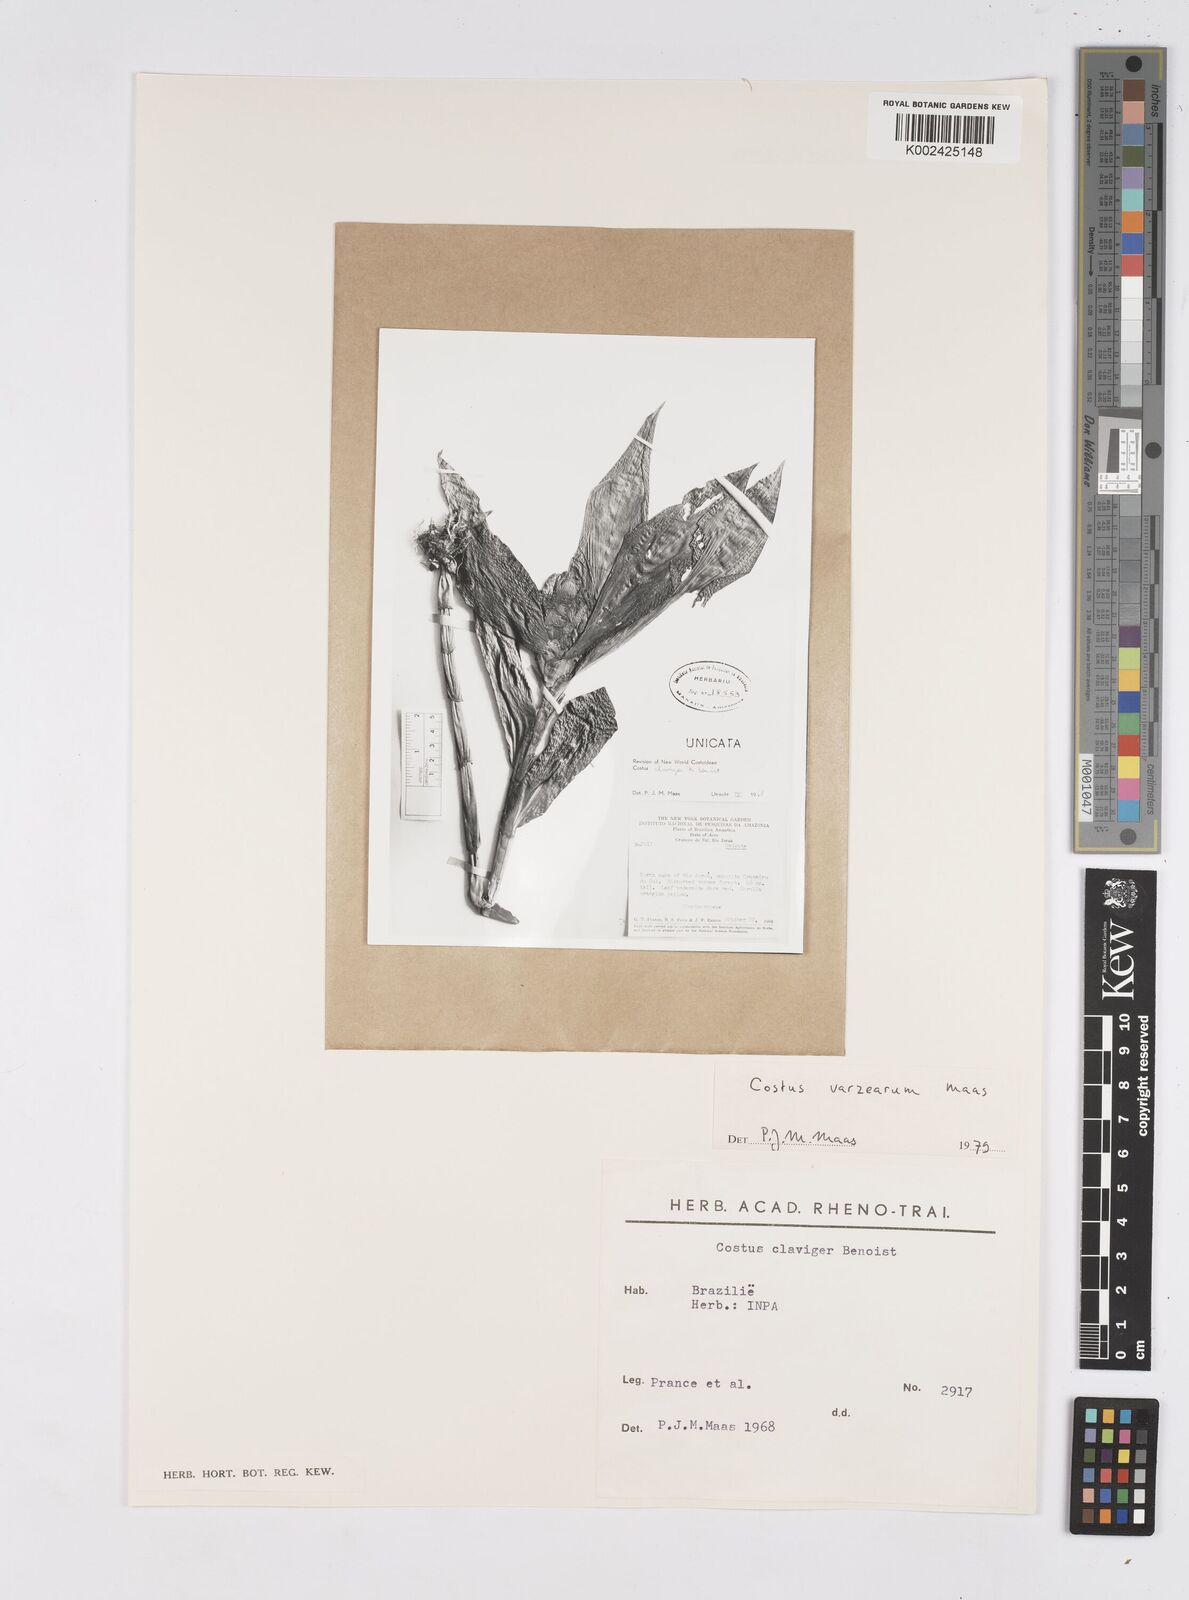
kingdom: Plantae
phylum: Tracheophyta
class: Liliopsida
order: Zingiberales
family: Costaceae
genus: Costus
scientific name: Costus varzearum
